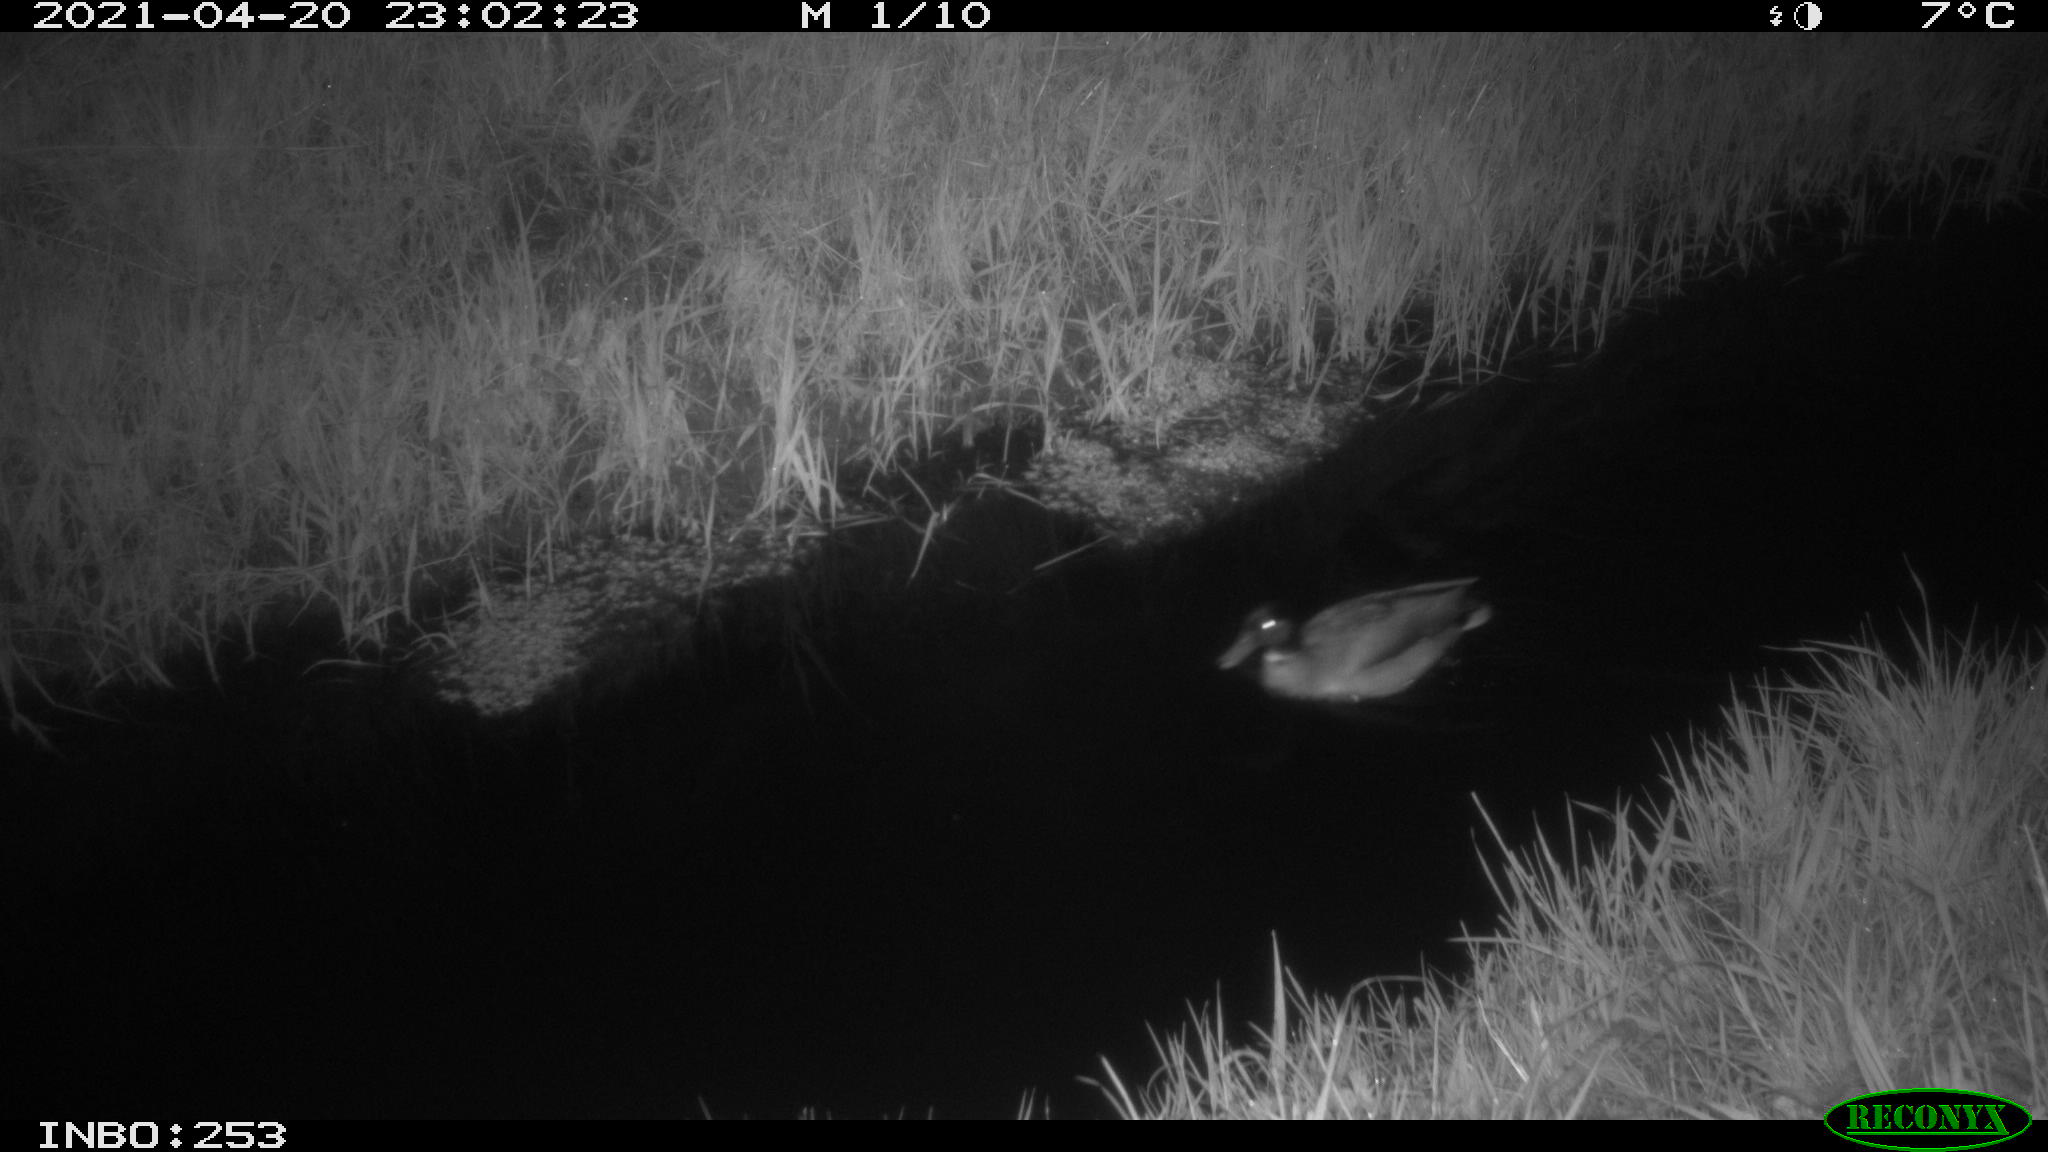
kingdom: Animalia
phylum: Chordata
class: Aves
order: Anseriformes
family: Anatidae
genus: Anas
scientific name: Anas platyrhynchos
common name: Mallard
